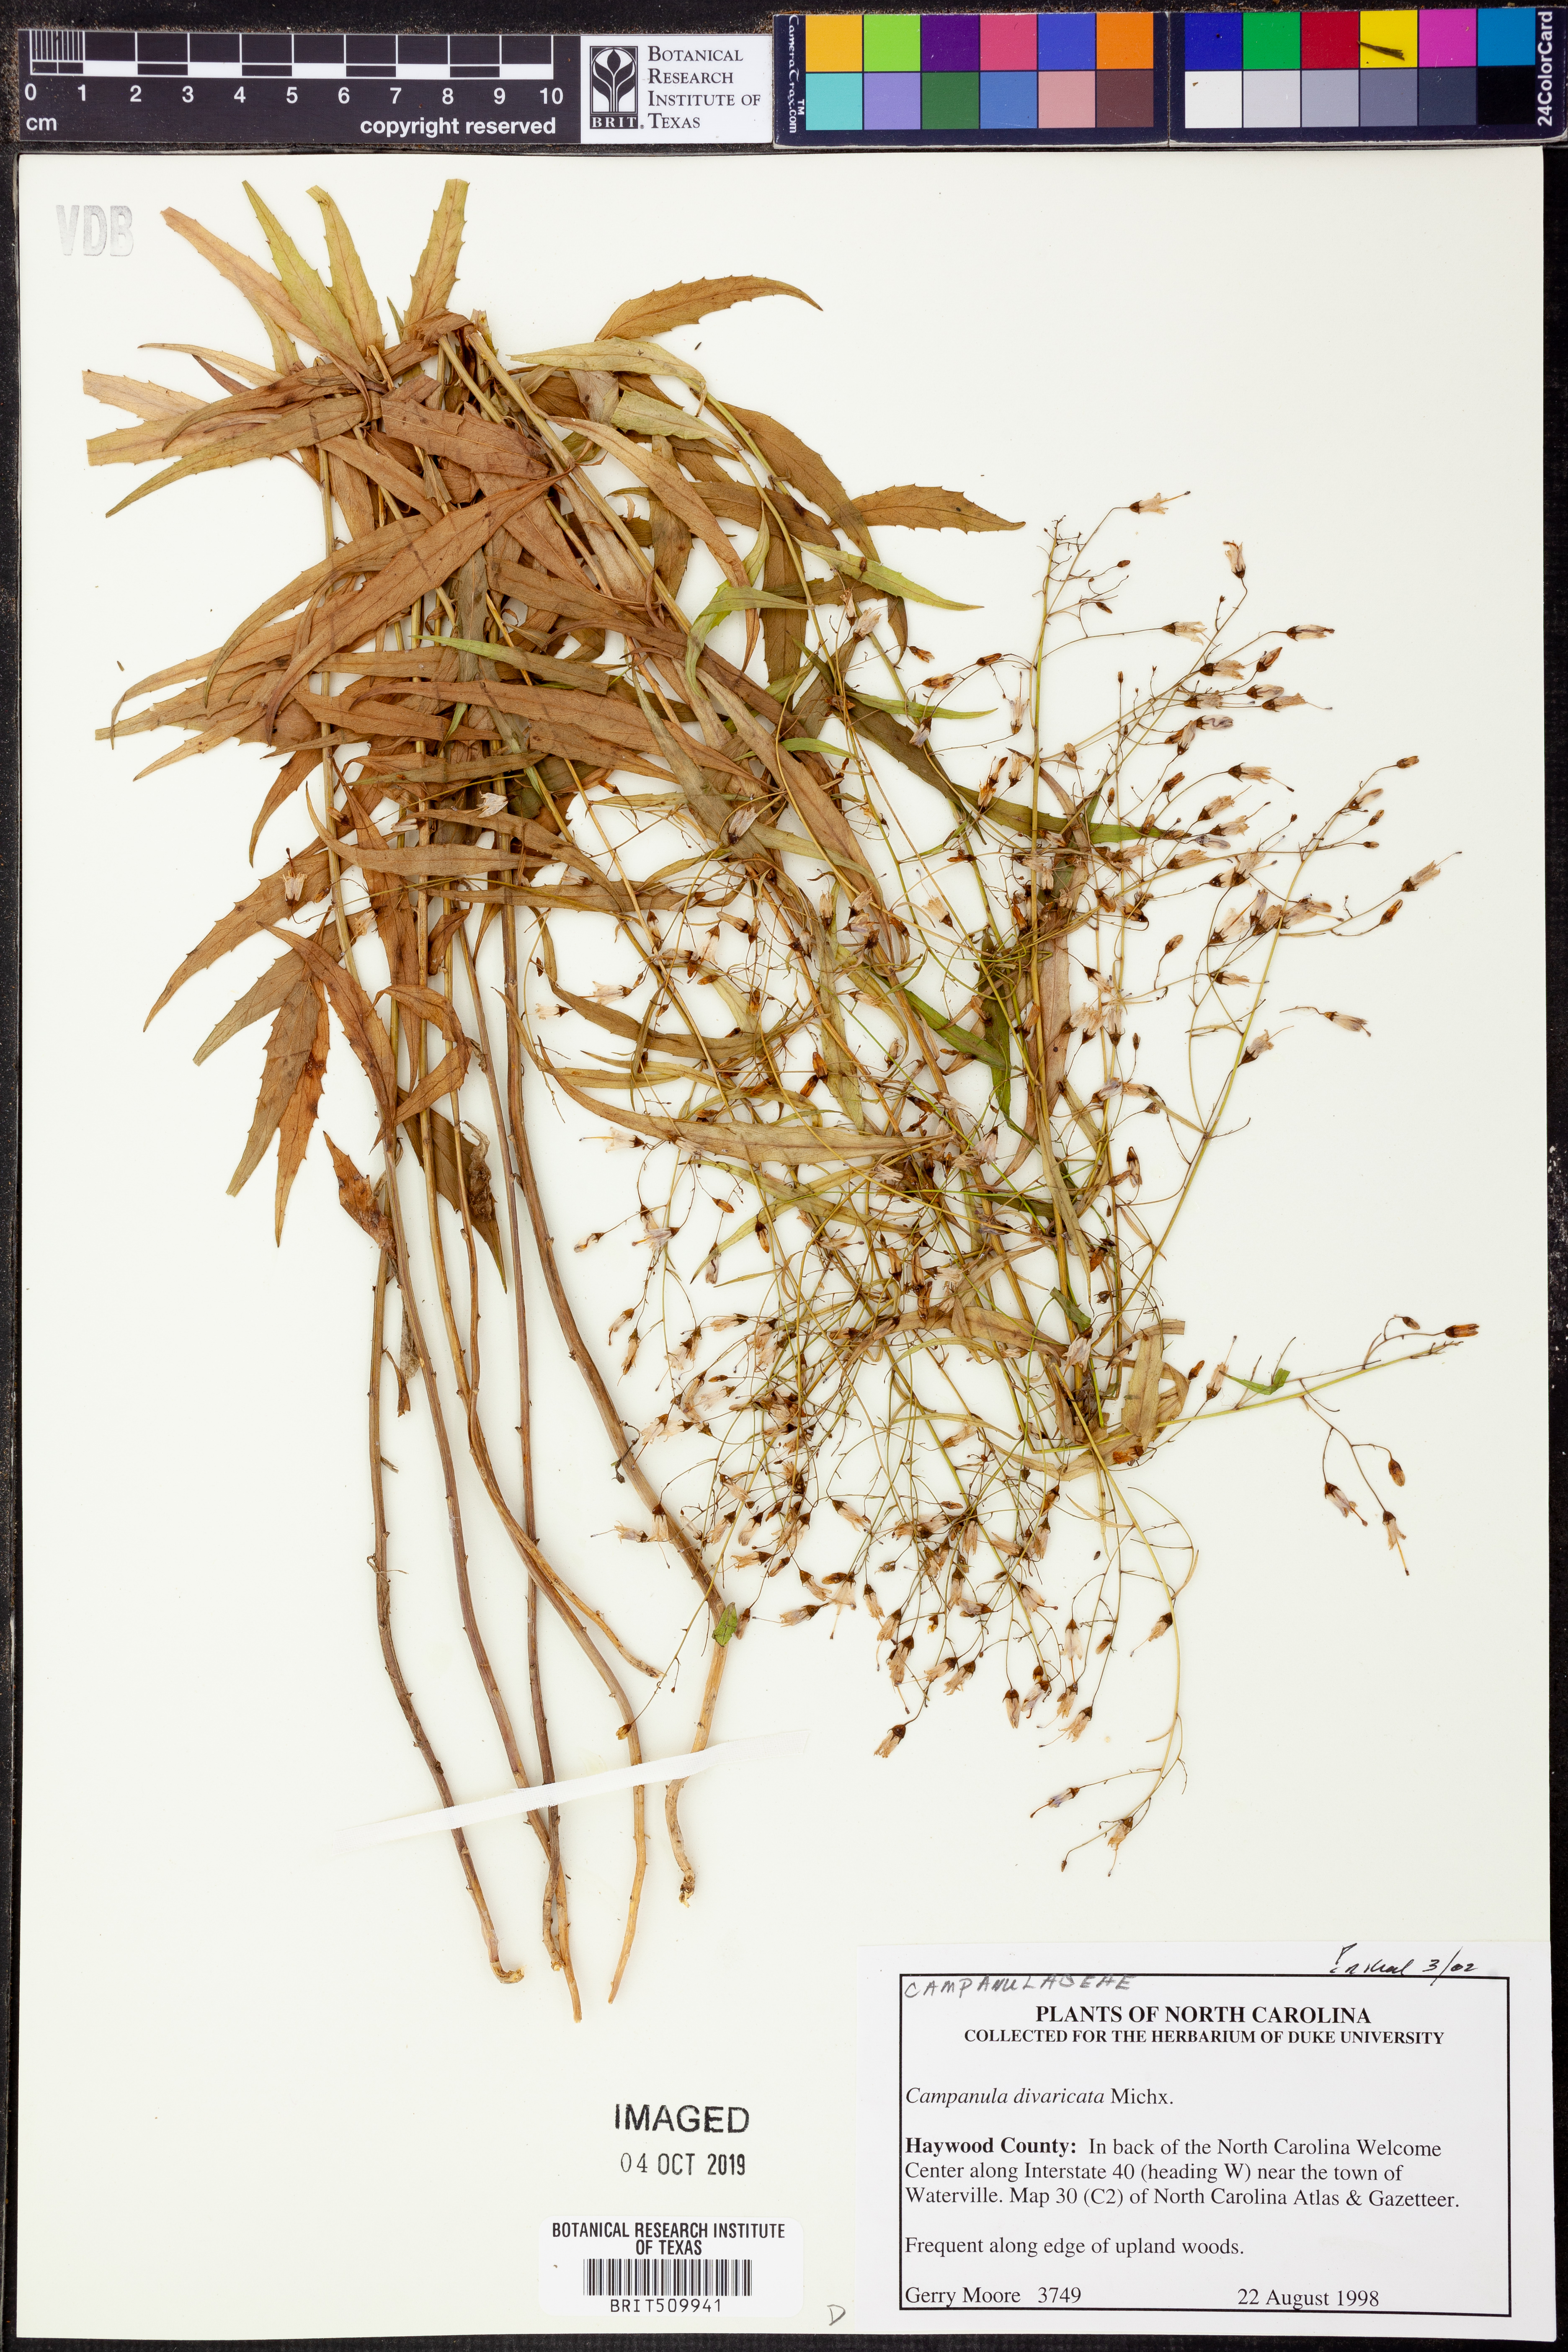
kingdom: Plantae
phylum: Tracheophyta
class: Magnoliopsida
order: Asterales
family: Campanulaceae
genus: Campanula
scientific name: Campanula divaricata
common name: Appalachian bellflower
